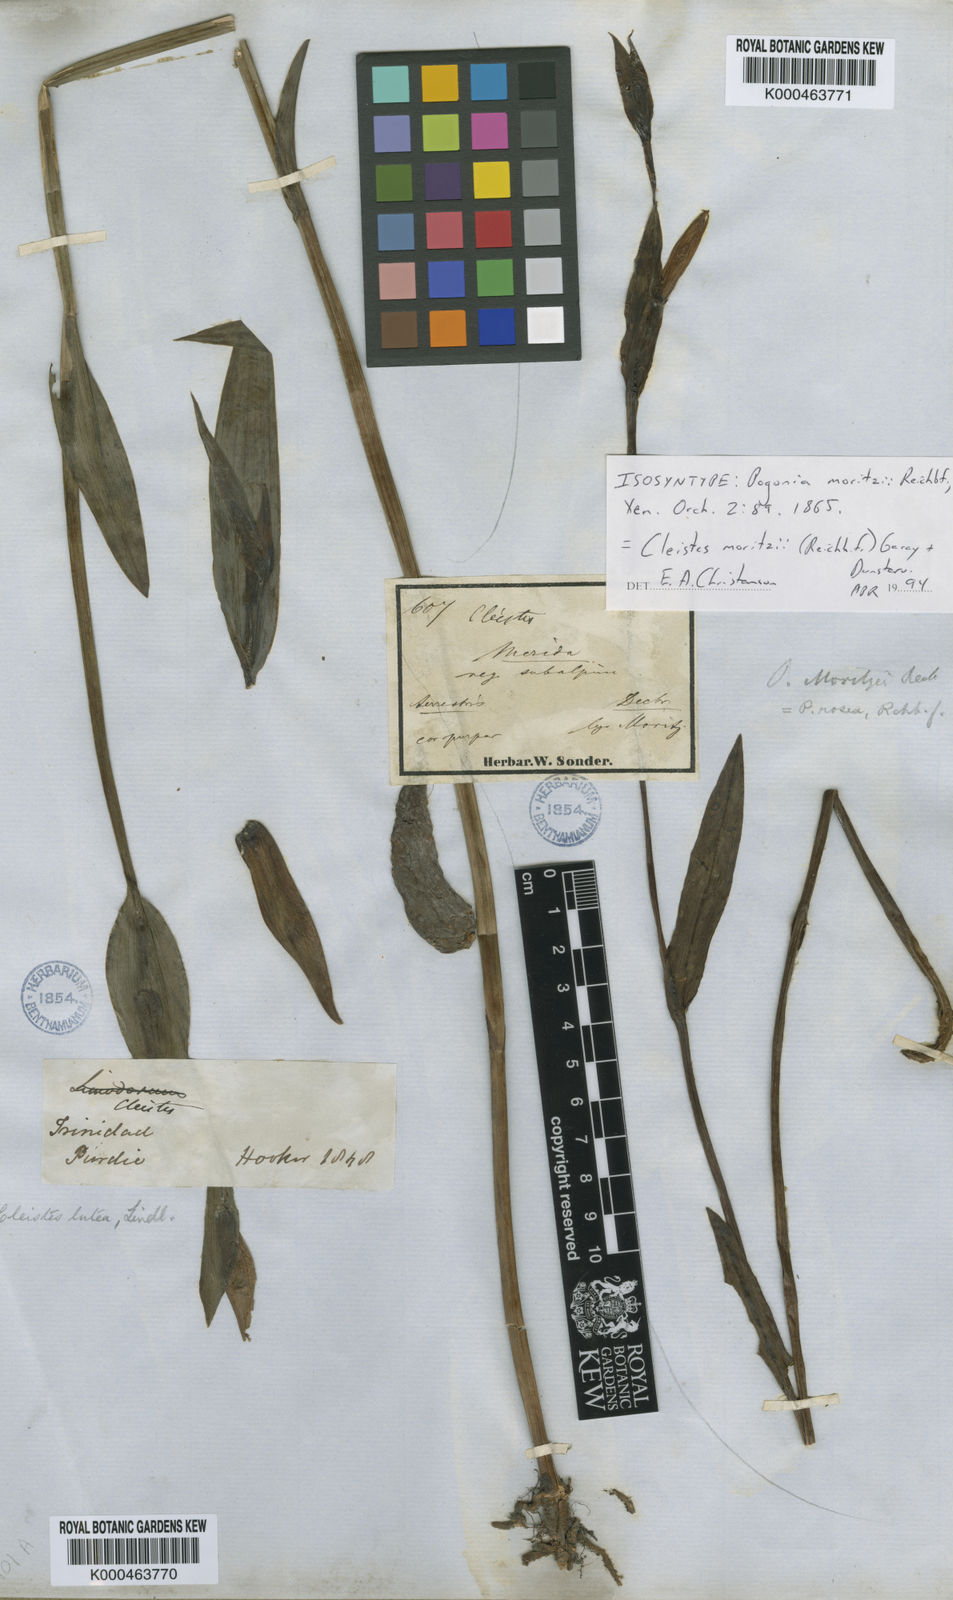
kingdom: Plantae
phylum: Tracheophyta
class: Liliopsida
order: Asparagales
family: Orchidaceae
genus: Cleistes
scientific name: Cleistes moritzii
